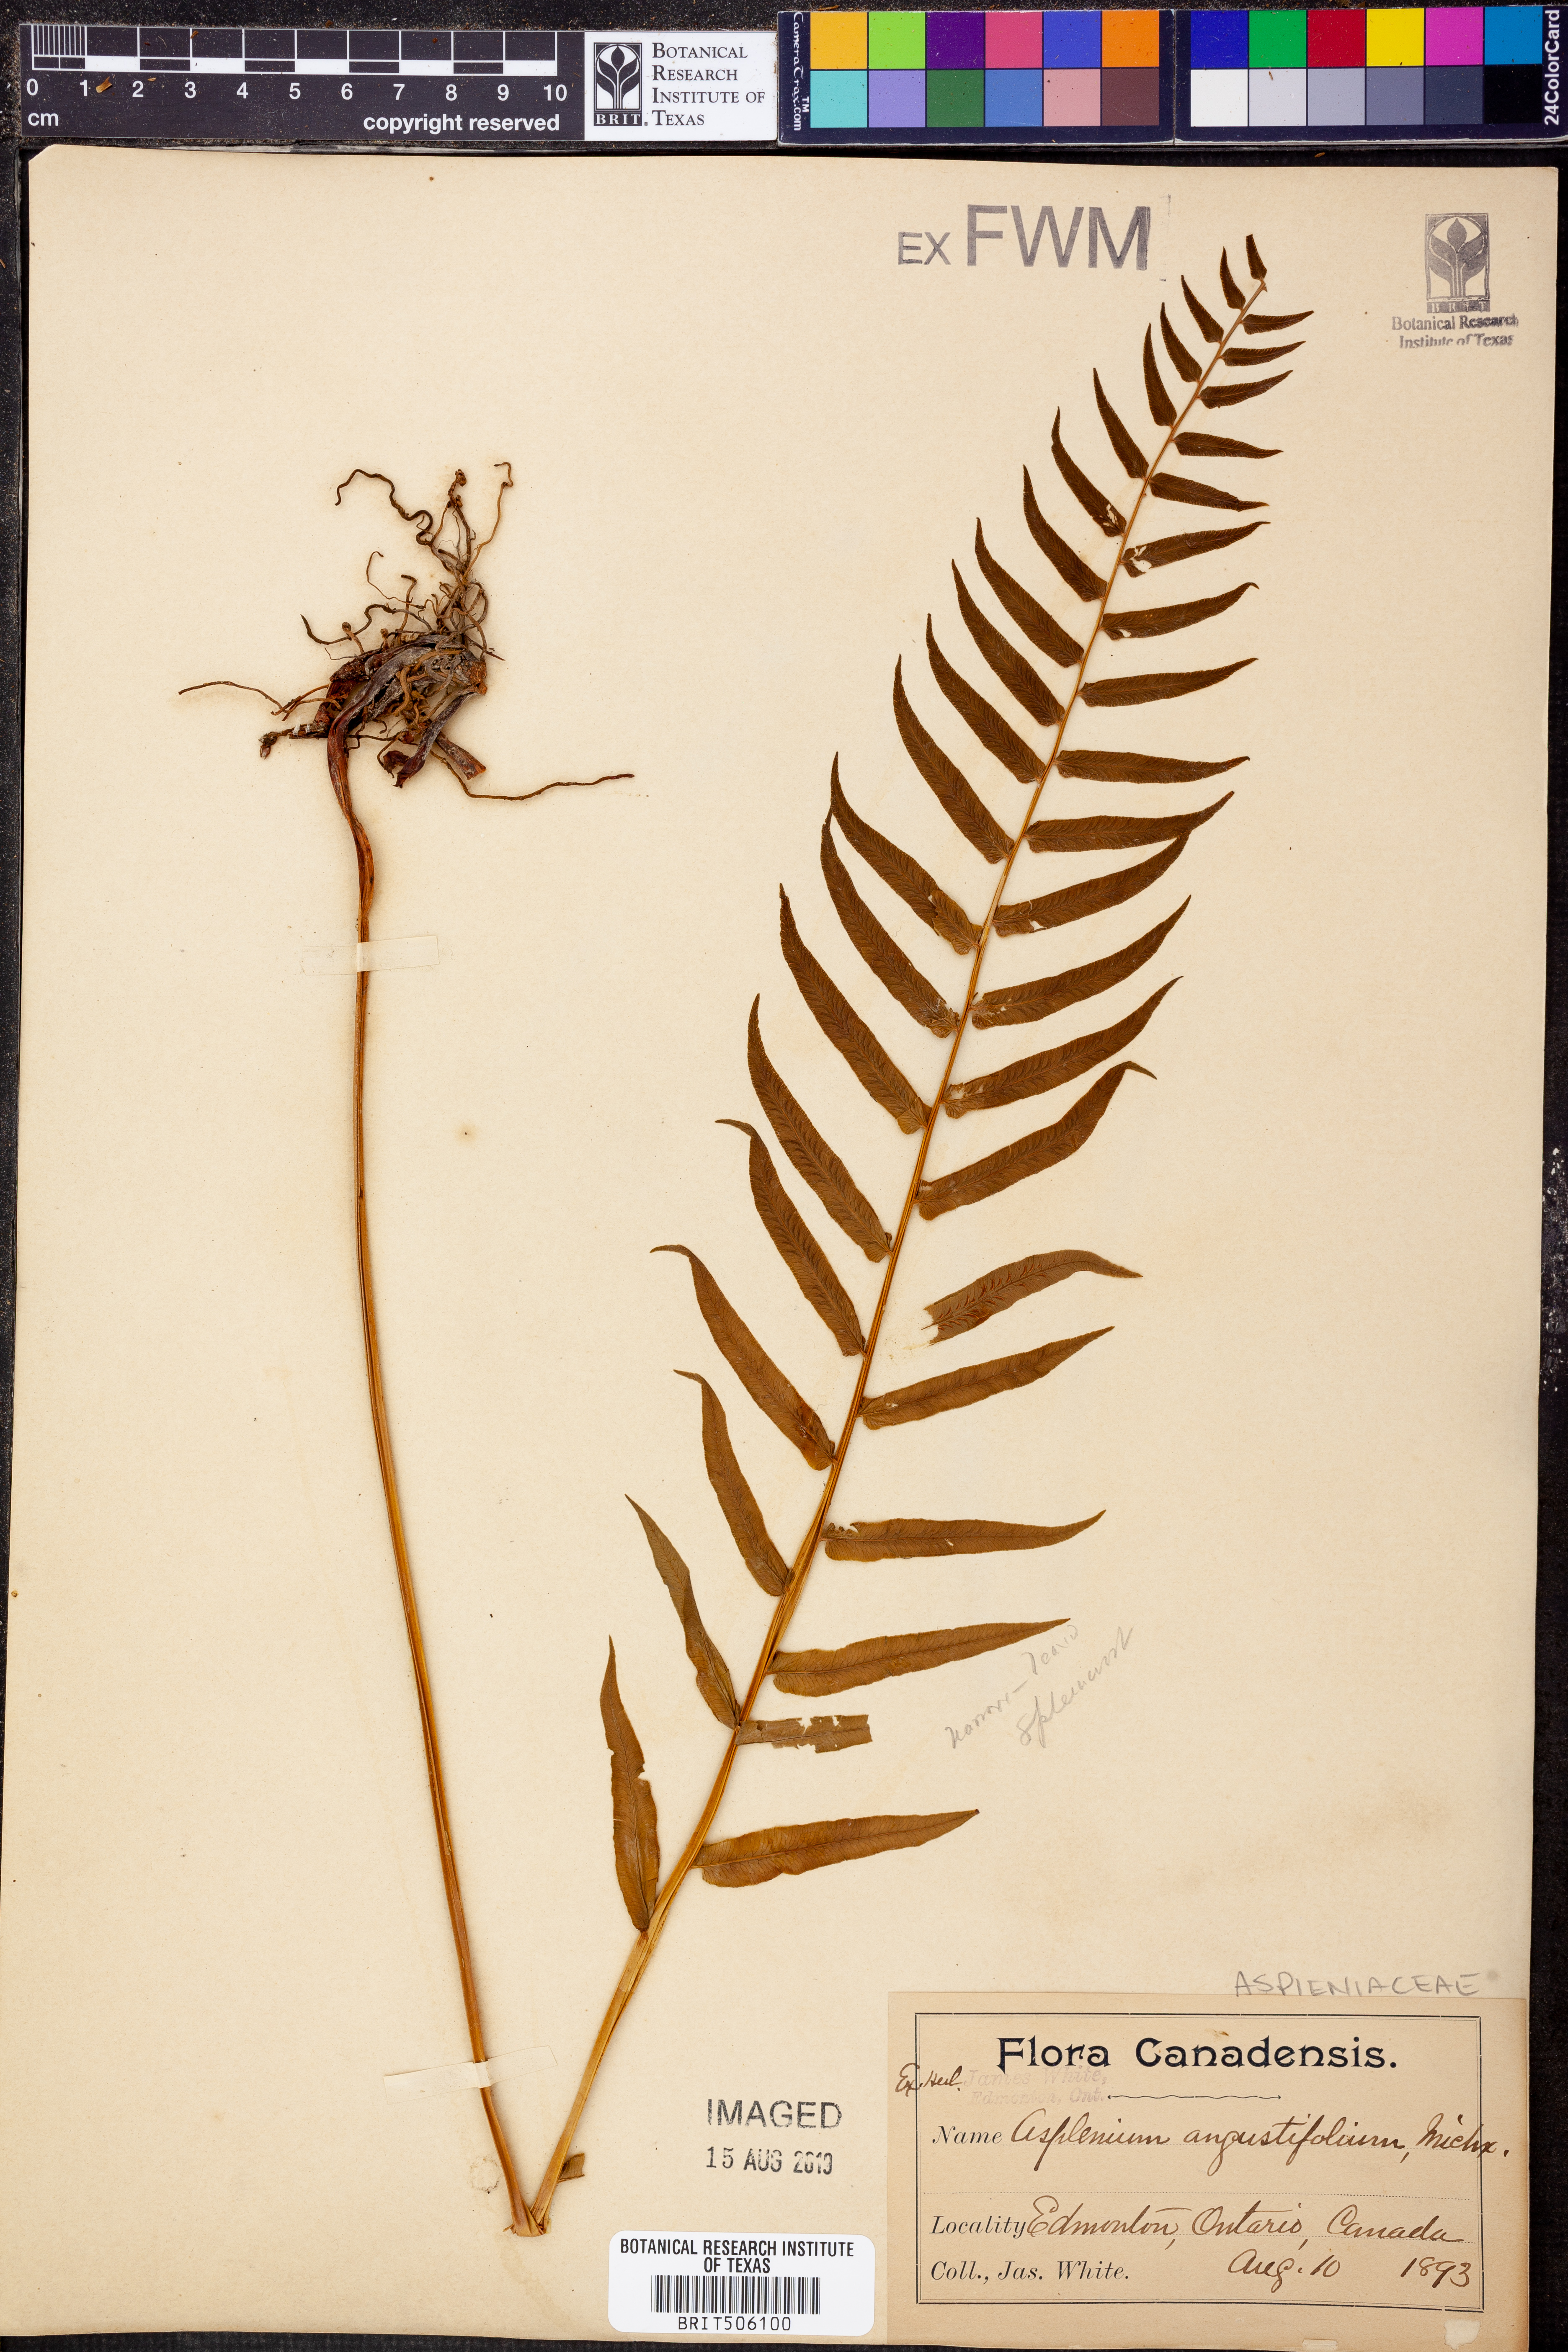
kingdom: Plantae
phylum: Tracheophyta
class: Polypodiopsida
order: Polypodiales
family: Diplaziopsidaceae
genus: Homalosorus
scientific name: Homalosorus pycnocarpos
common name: Glade fern
